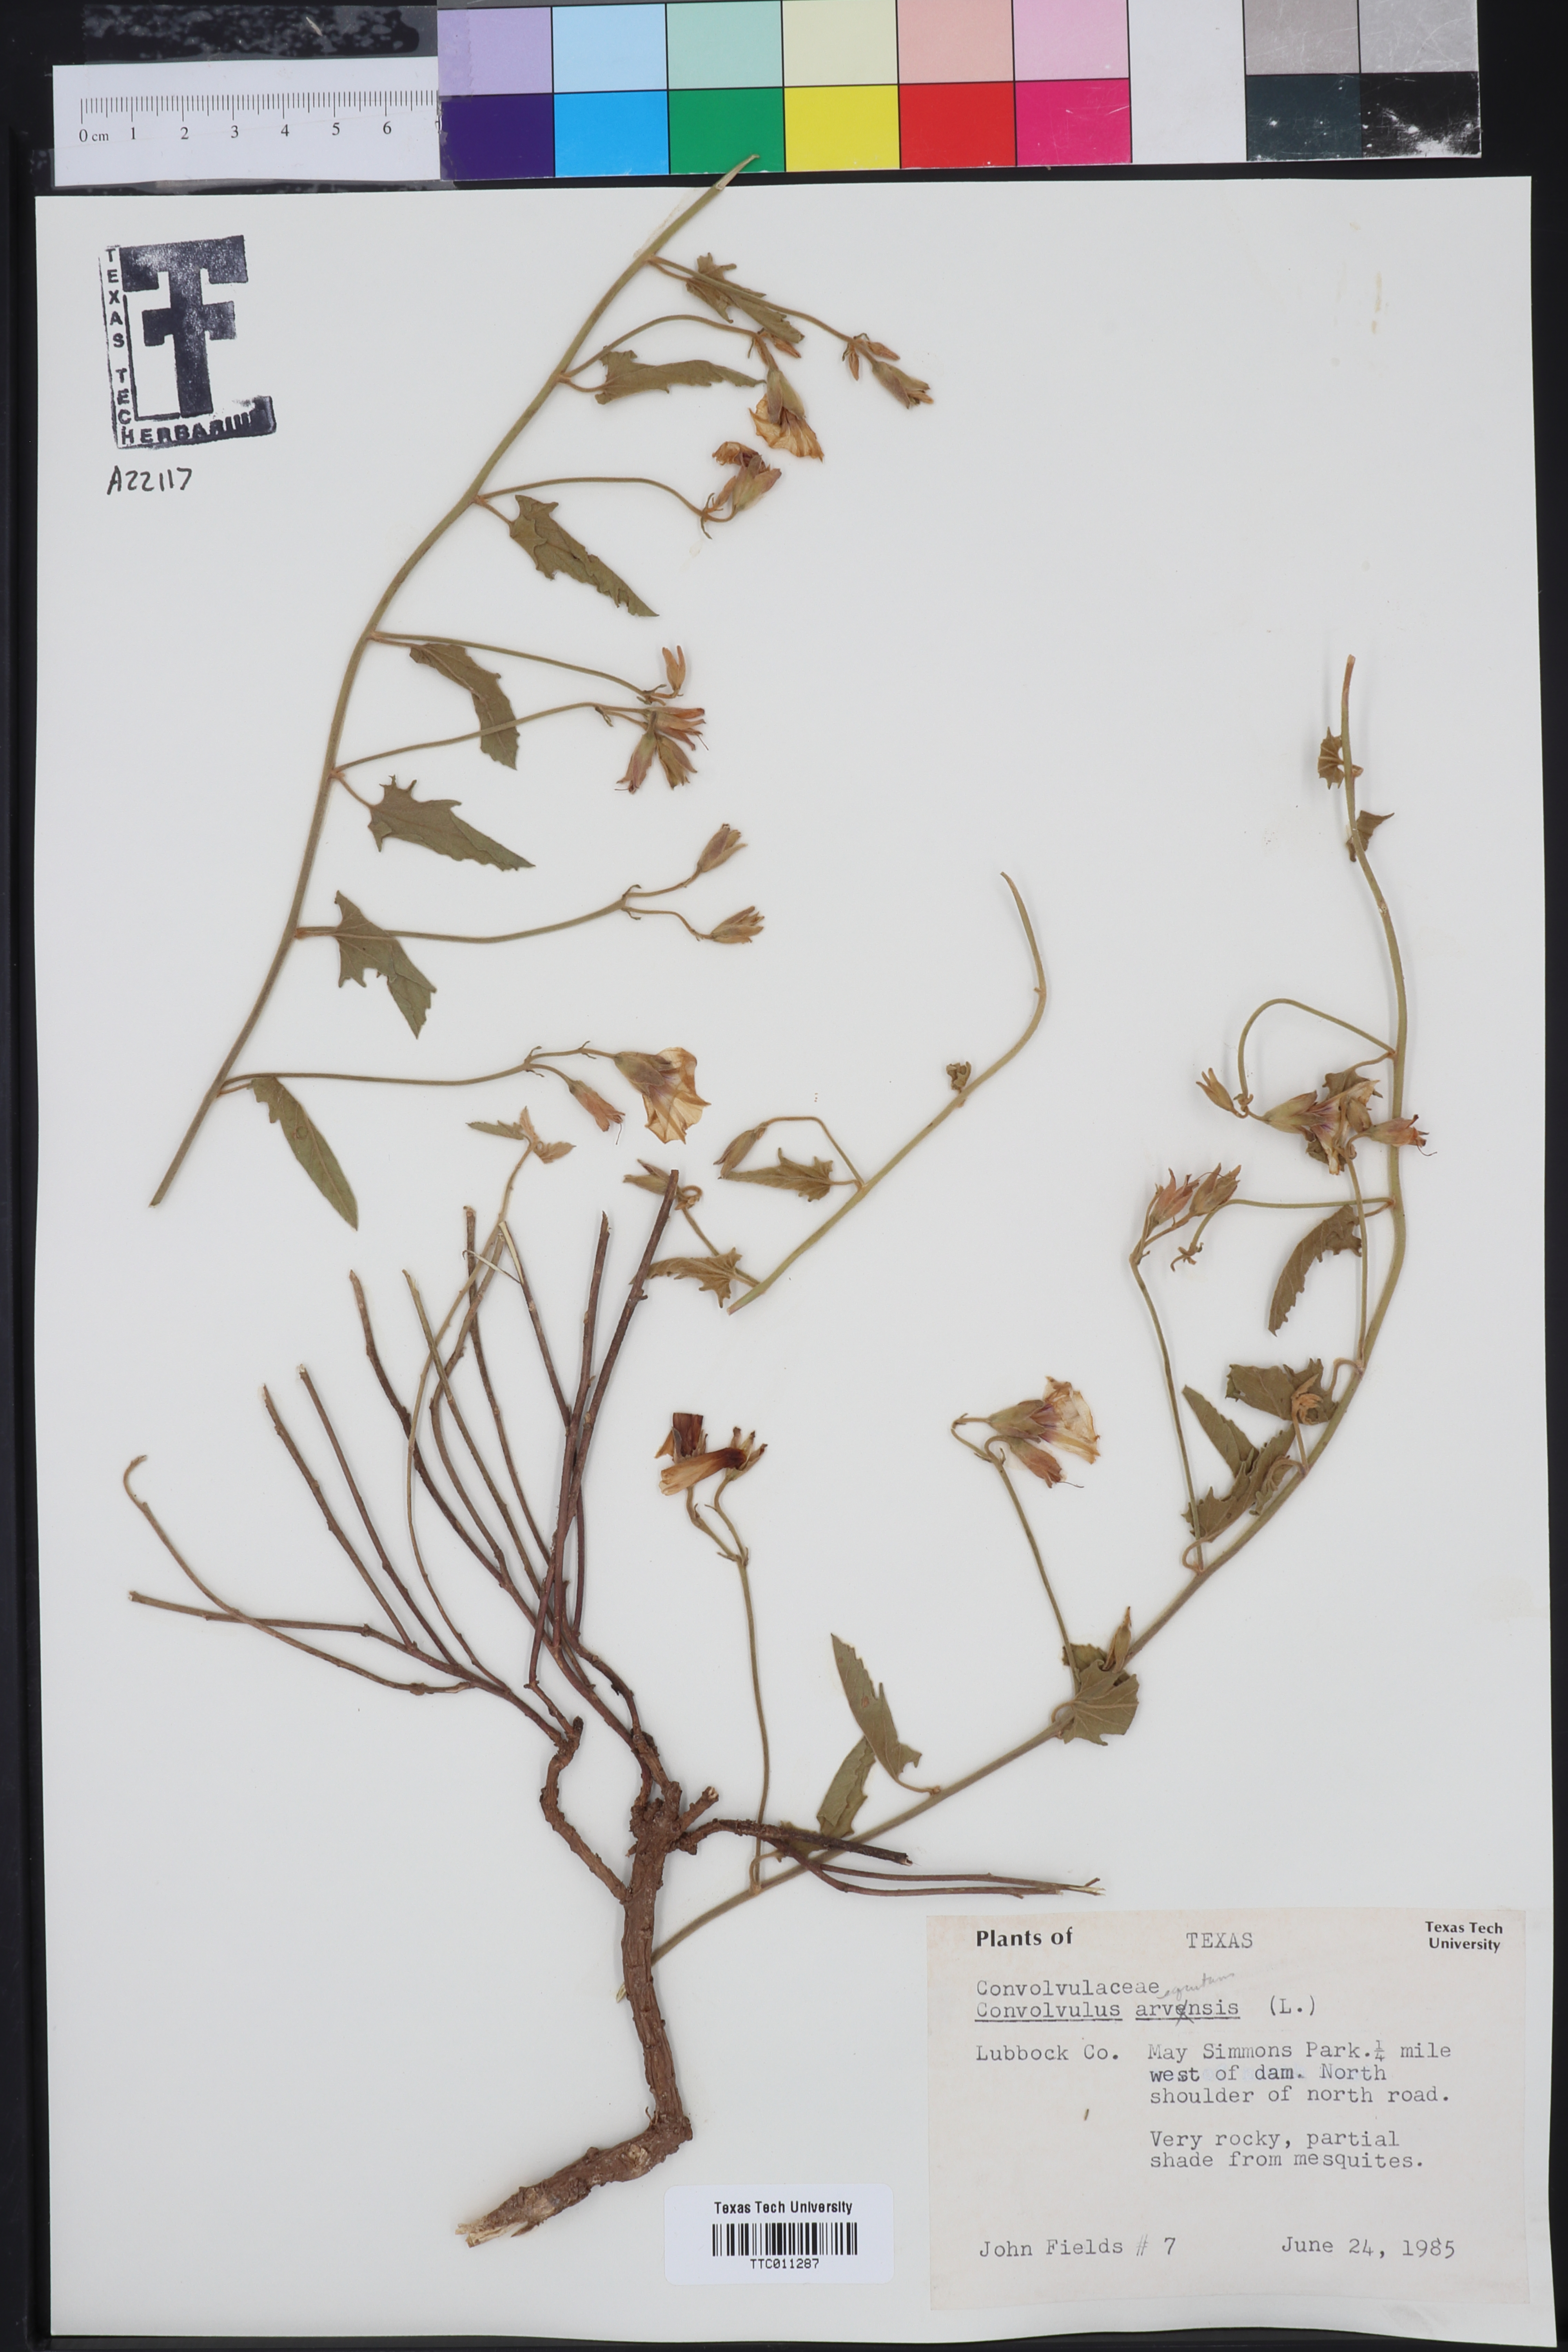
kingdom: Plantae
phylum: Tracheophyta
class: Magnoliopsida
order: Solanales
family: Convolvulaceae
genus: Convolvulus
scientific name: Convolvulus arvensis
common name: Field bindweed
